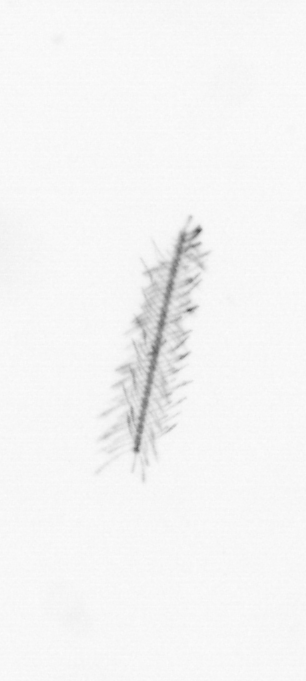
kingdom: Chromista
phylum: Ochrophyta
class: Bacillariophyceae
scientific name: Bacillariophyceae
